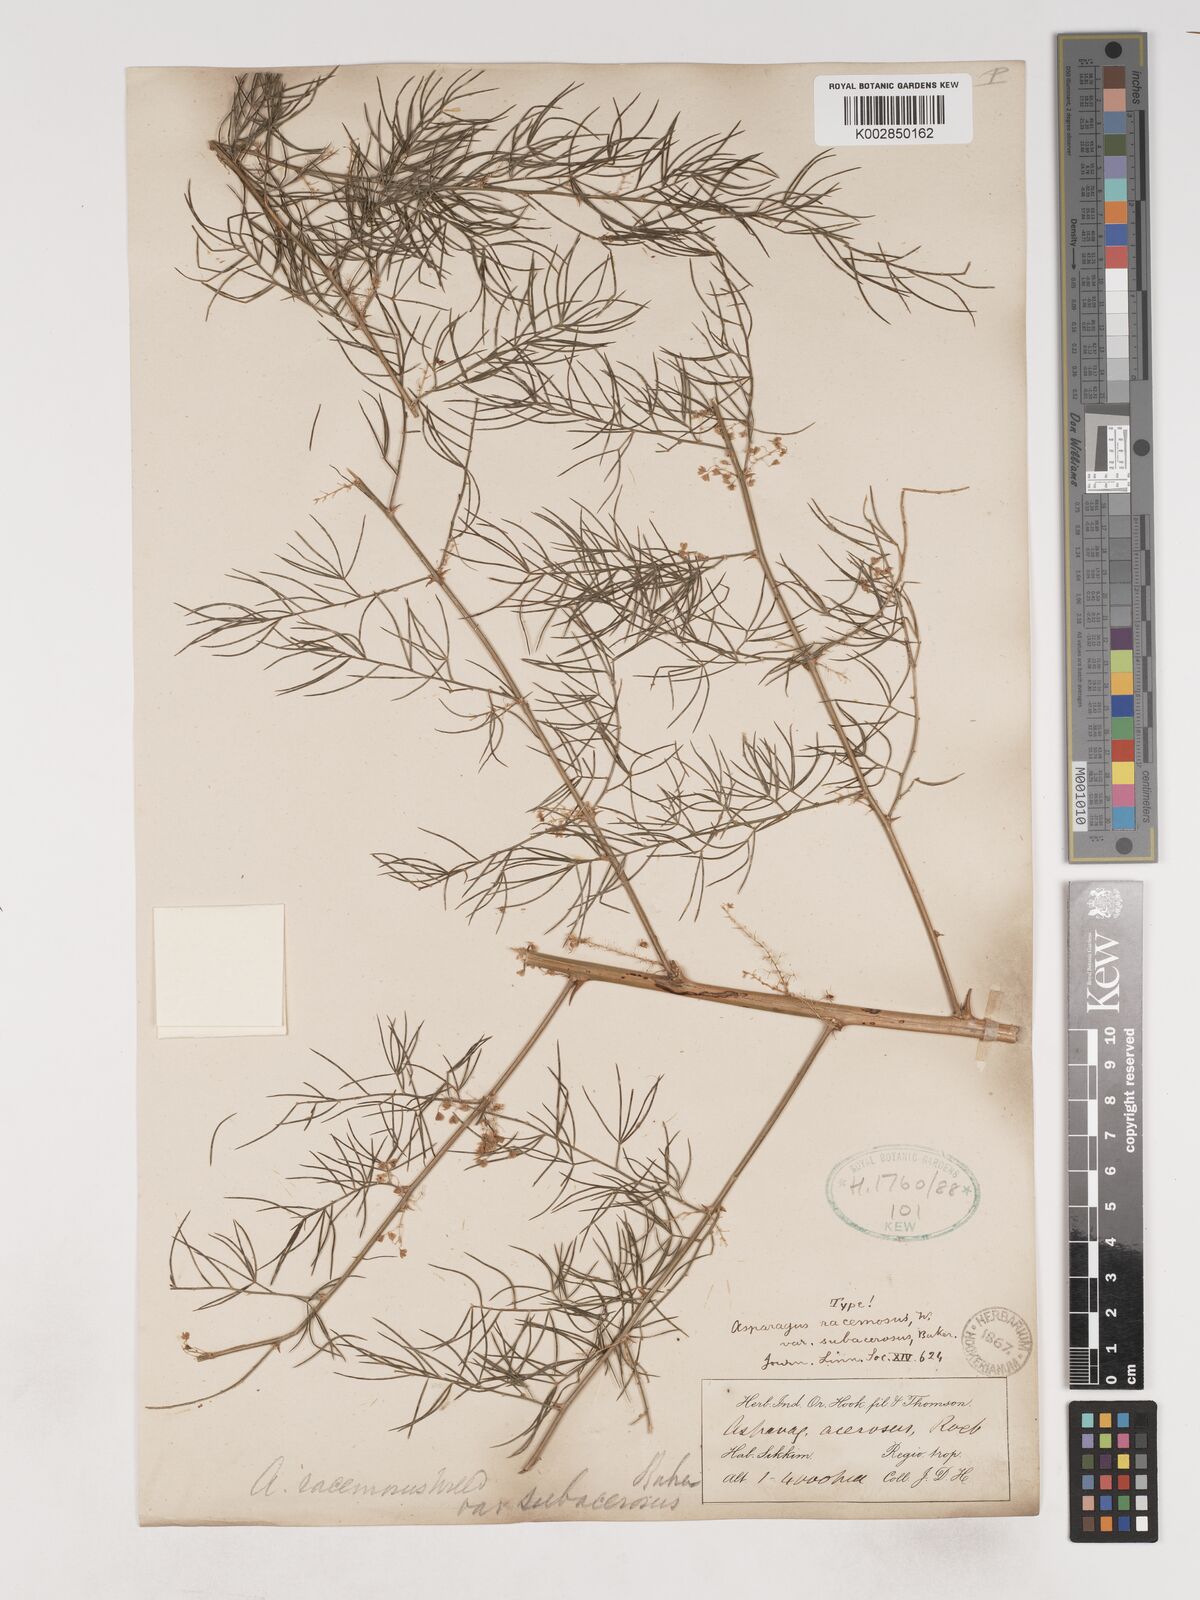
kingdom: Plantae
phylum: Tracheophyta
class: Liliopsida
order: Asparagales
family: Asparagaceae
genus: Asparagus
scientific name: Asparagus racemosus
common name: Asparagus-fern
